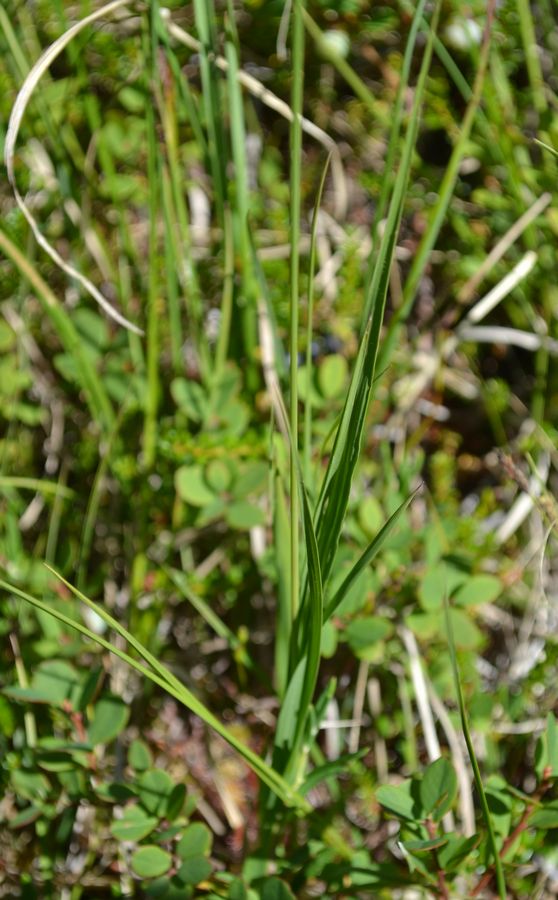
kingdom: Plantae
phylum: Tracheophyta
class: Liliopsida
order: Poales
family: Poaceae
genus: Molinia
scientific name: Molinia caerulea
